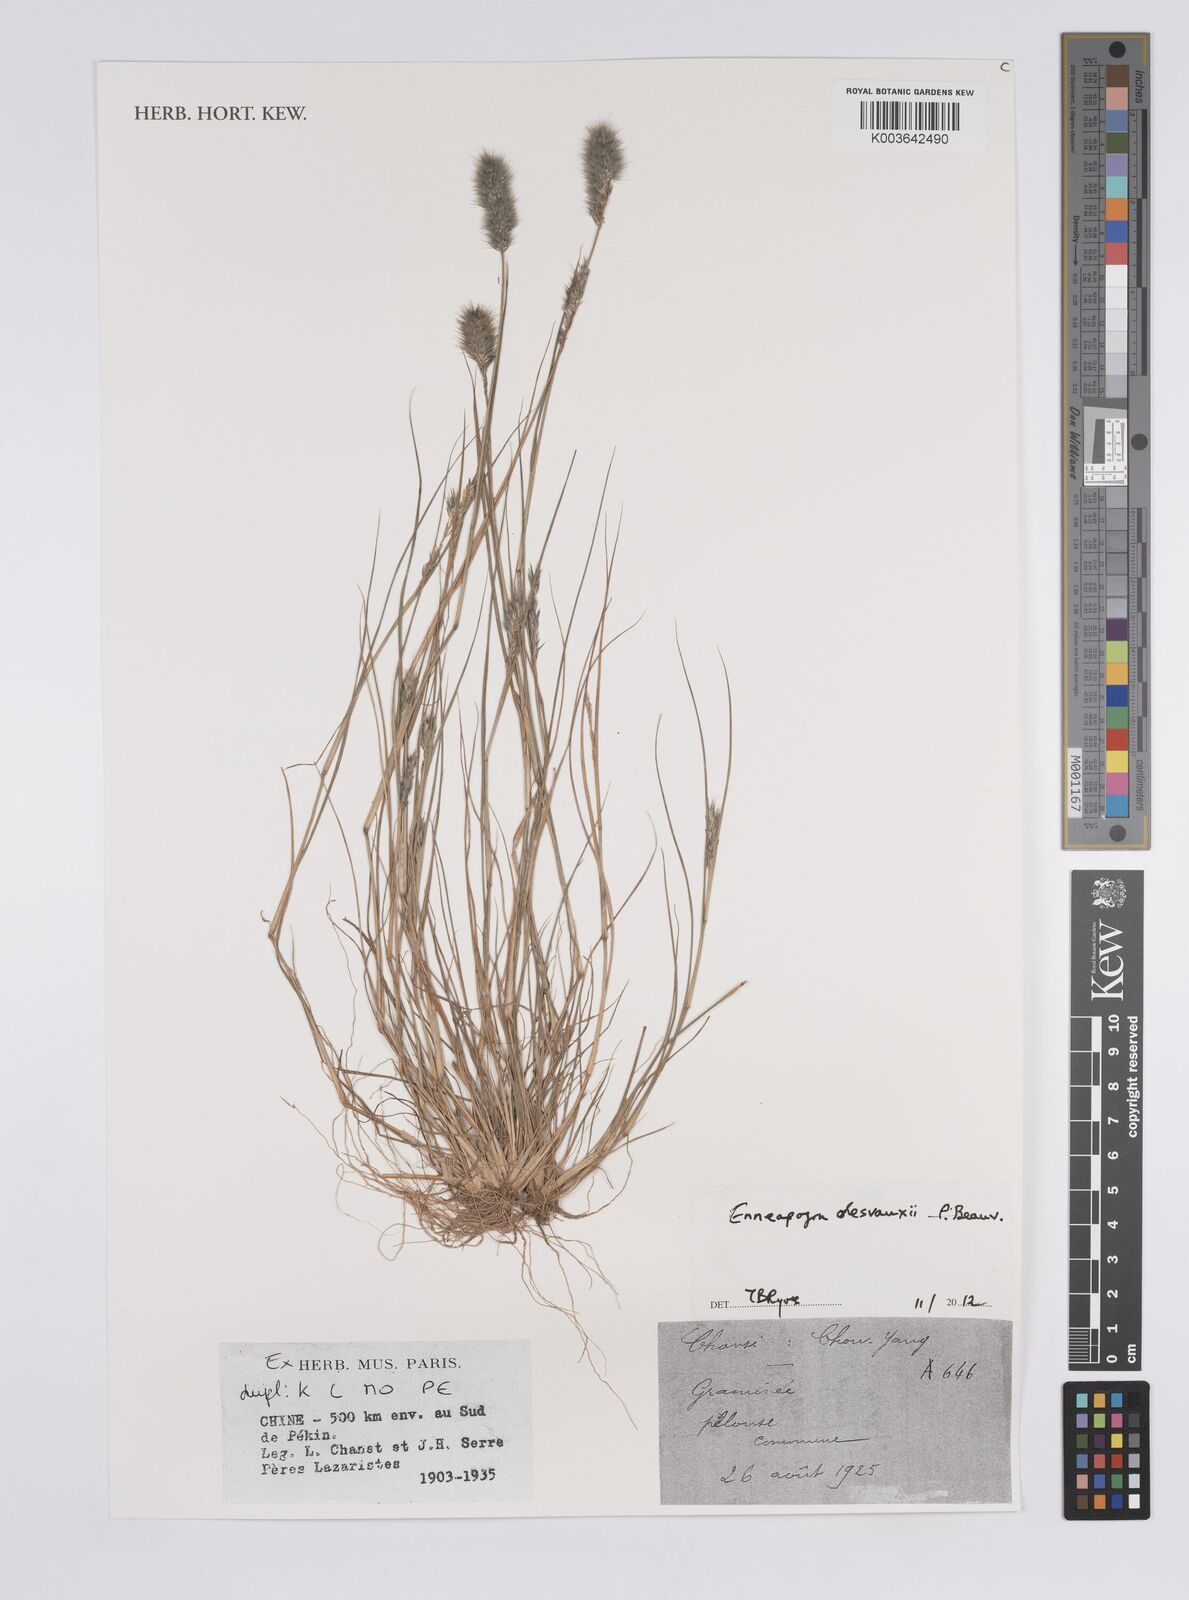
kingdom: Plantae
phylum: Tracheophyta
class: Liliopsida
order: Poales
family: Poaceae
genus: Enneapogon
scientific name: Enneapogon desvauxii
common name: Feather pappus grass
